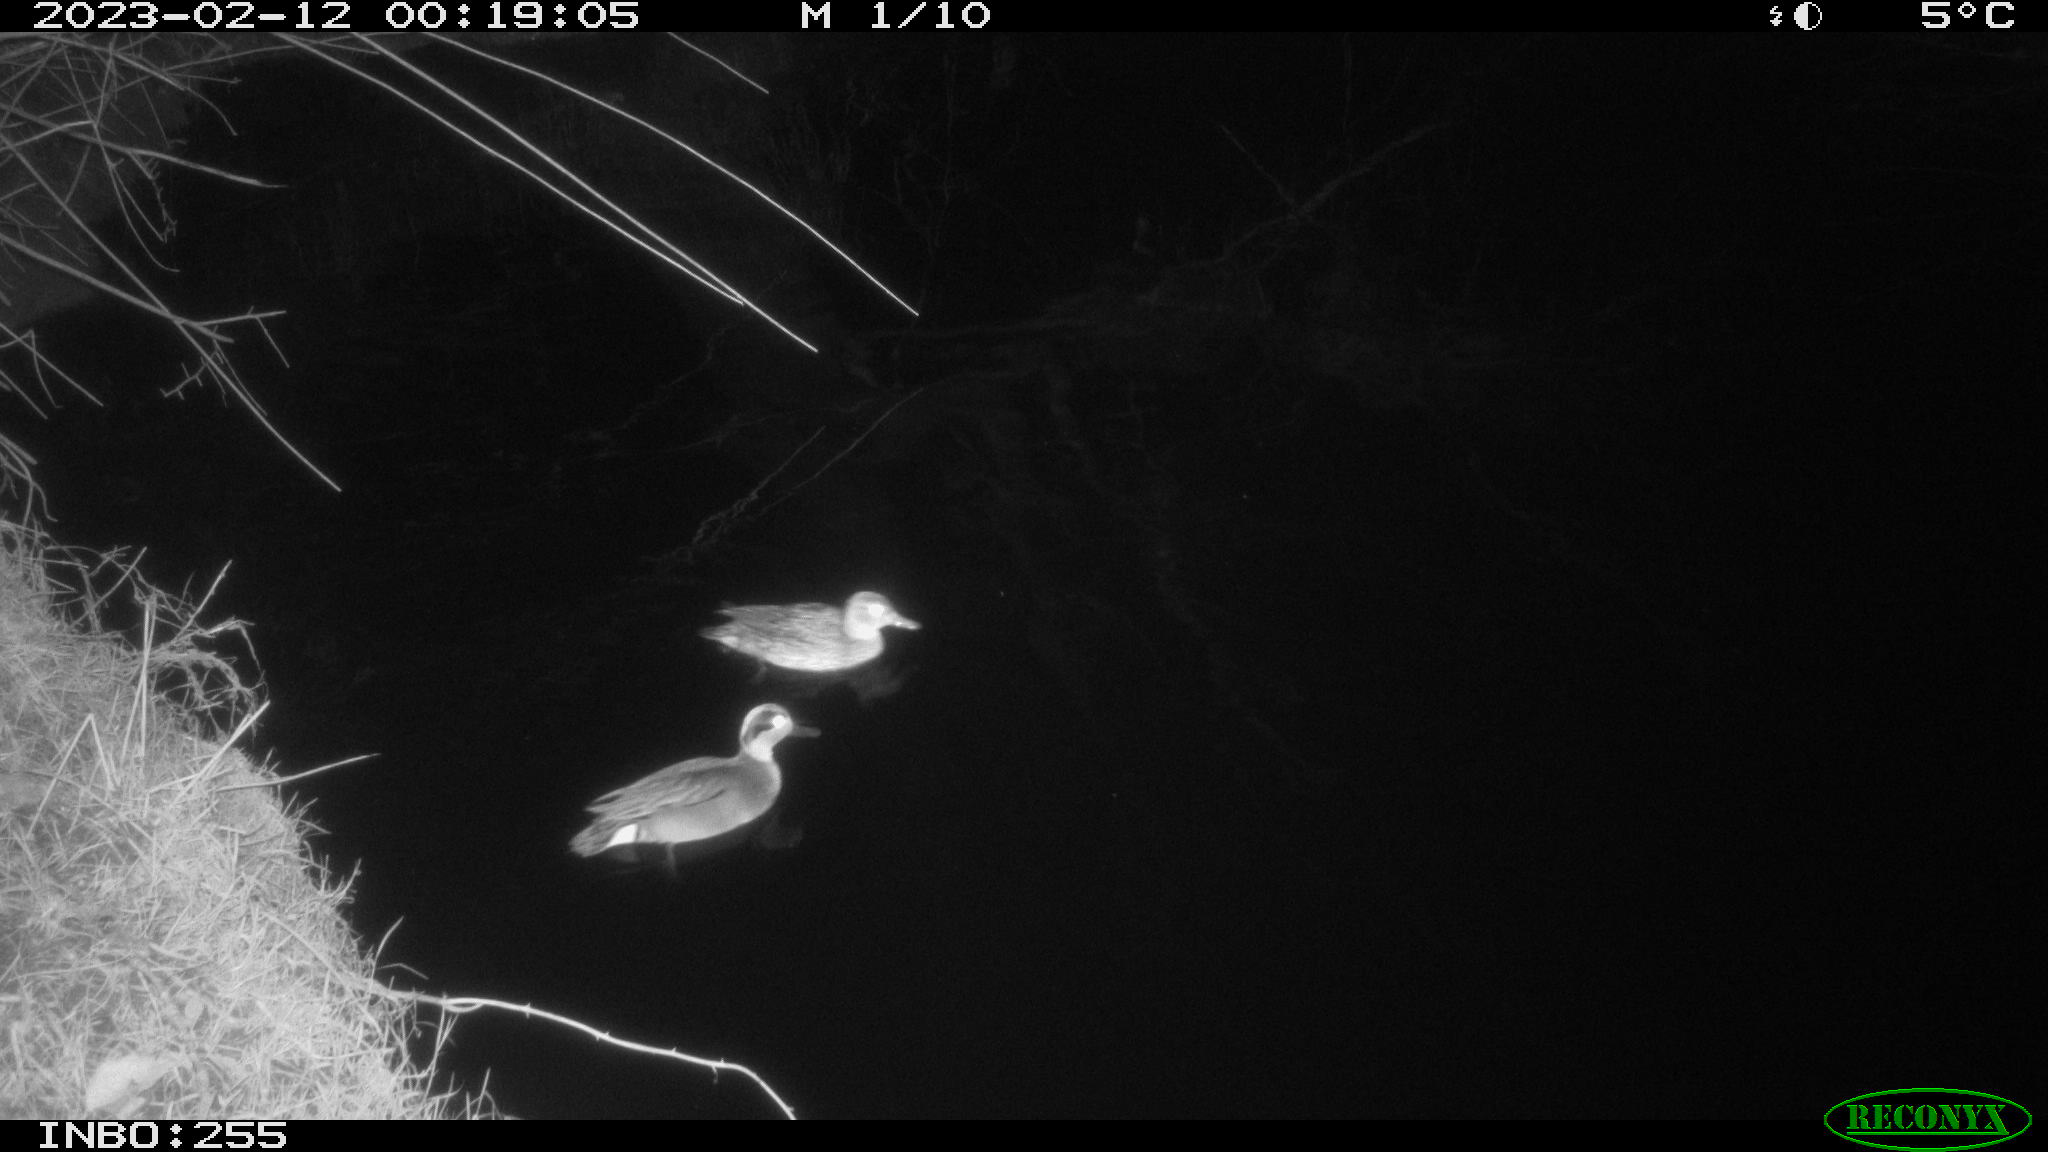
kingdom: Animalia
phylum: Chordata
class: Aves
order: Anseriformes
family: Anatidae
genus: Anas
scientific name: Anas
